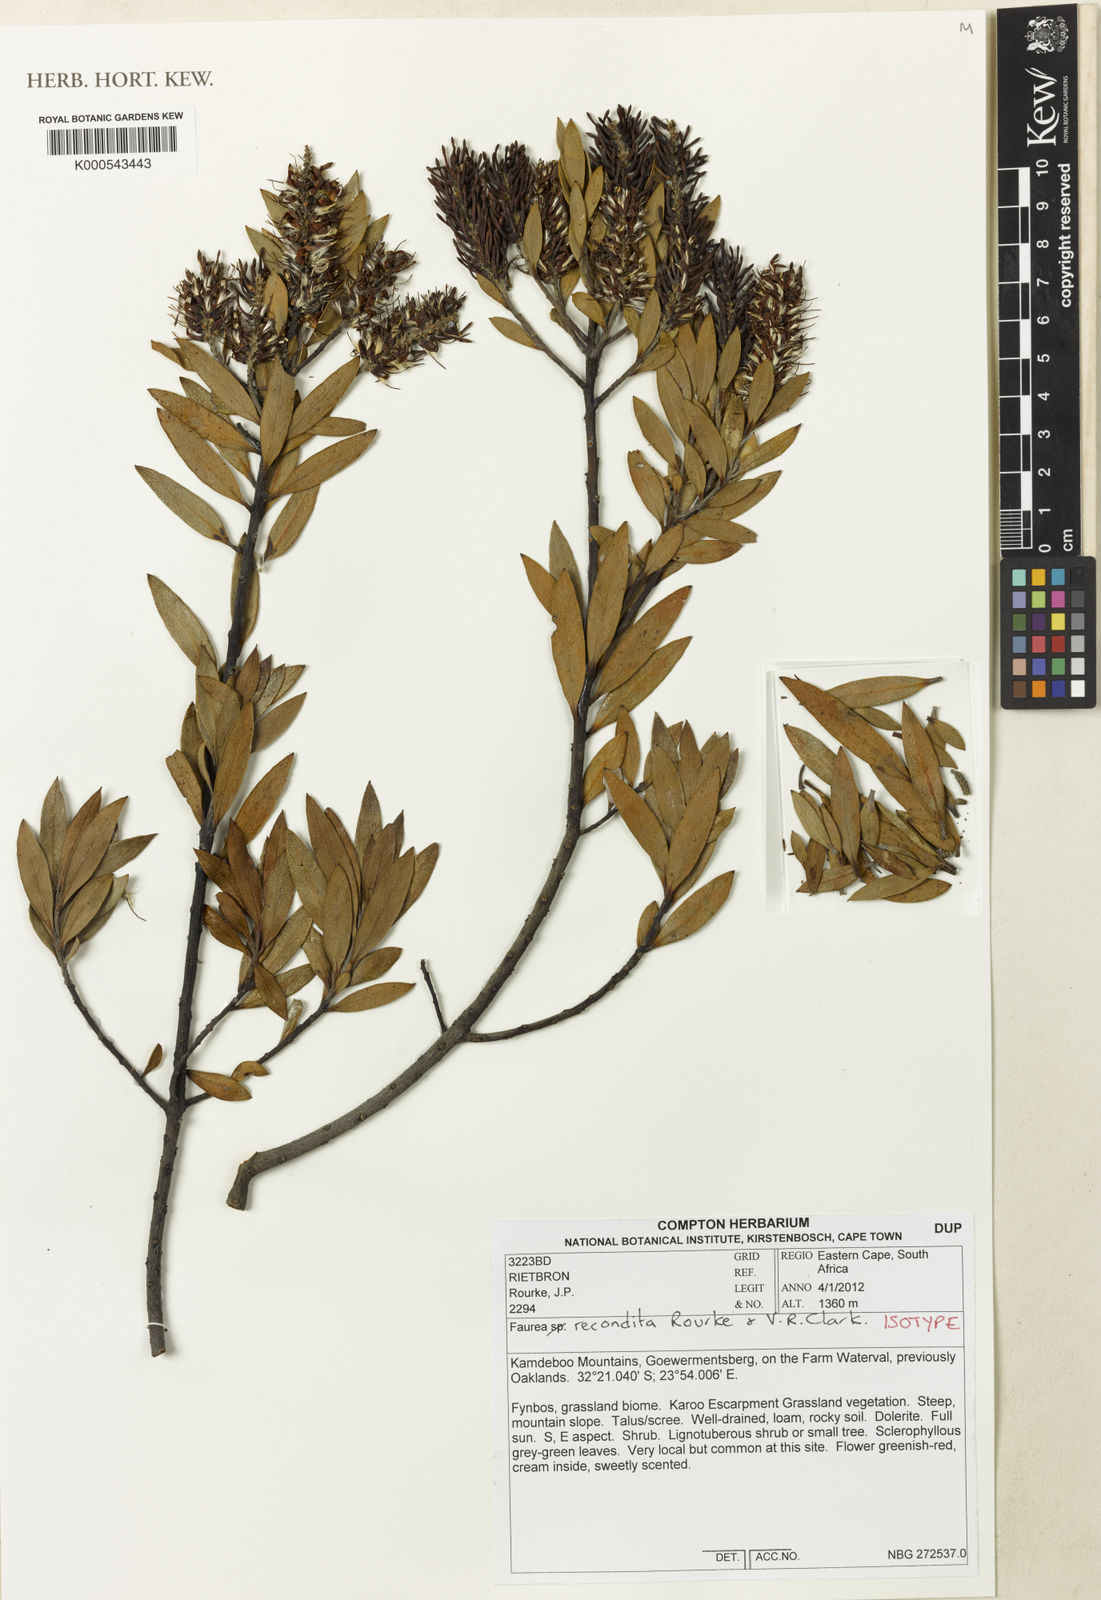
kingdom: Plantae
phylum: Tracheophyta
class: Magnoliopsida
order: Proteales
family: Proteaceae
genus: Faurea
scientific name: Faurea recondita
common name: Kamdeboo beechwood
